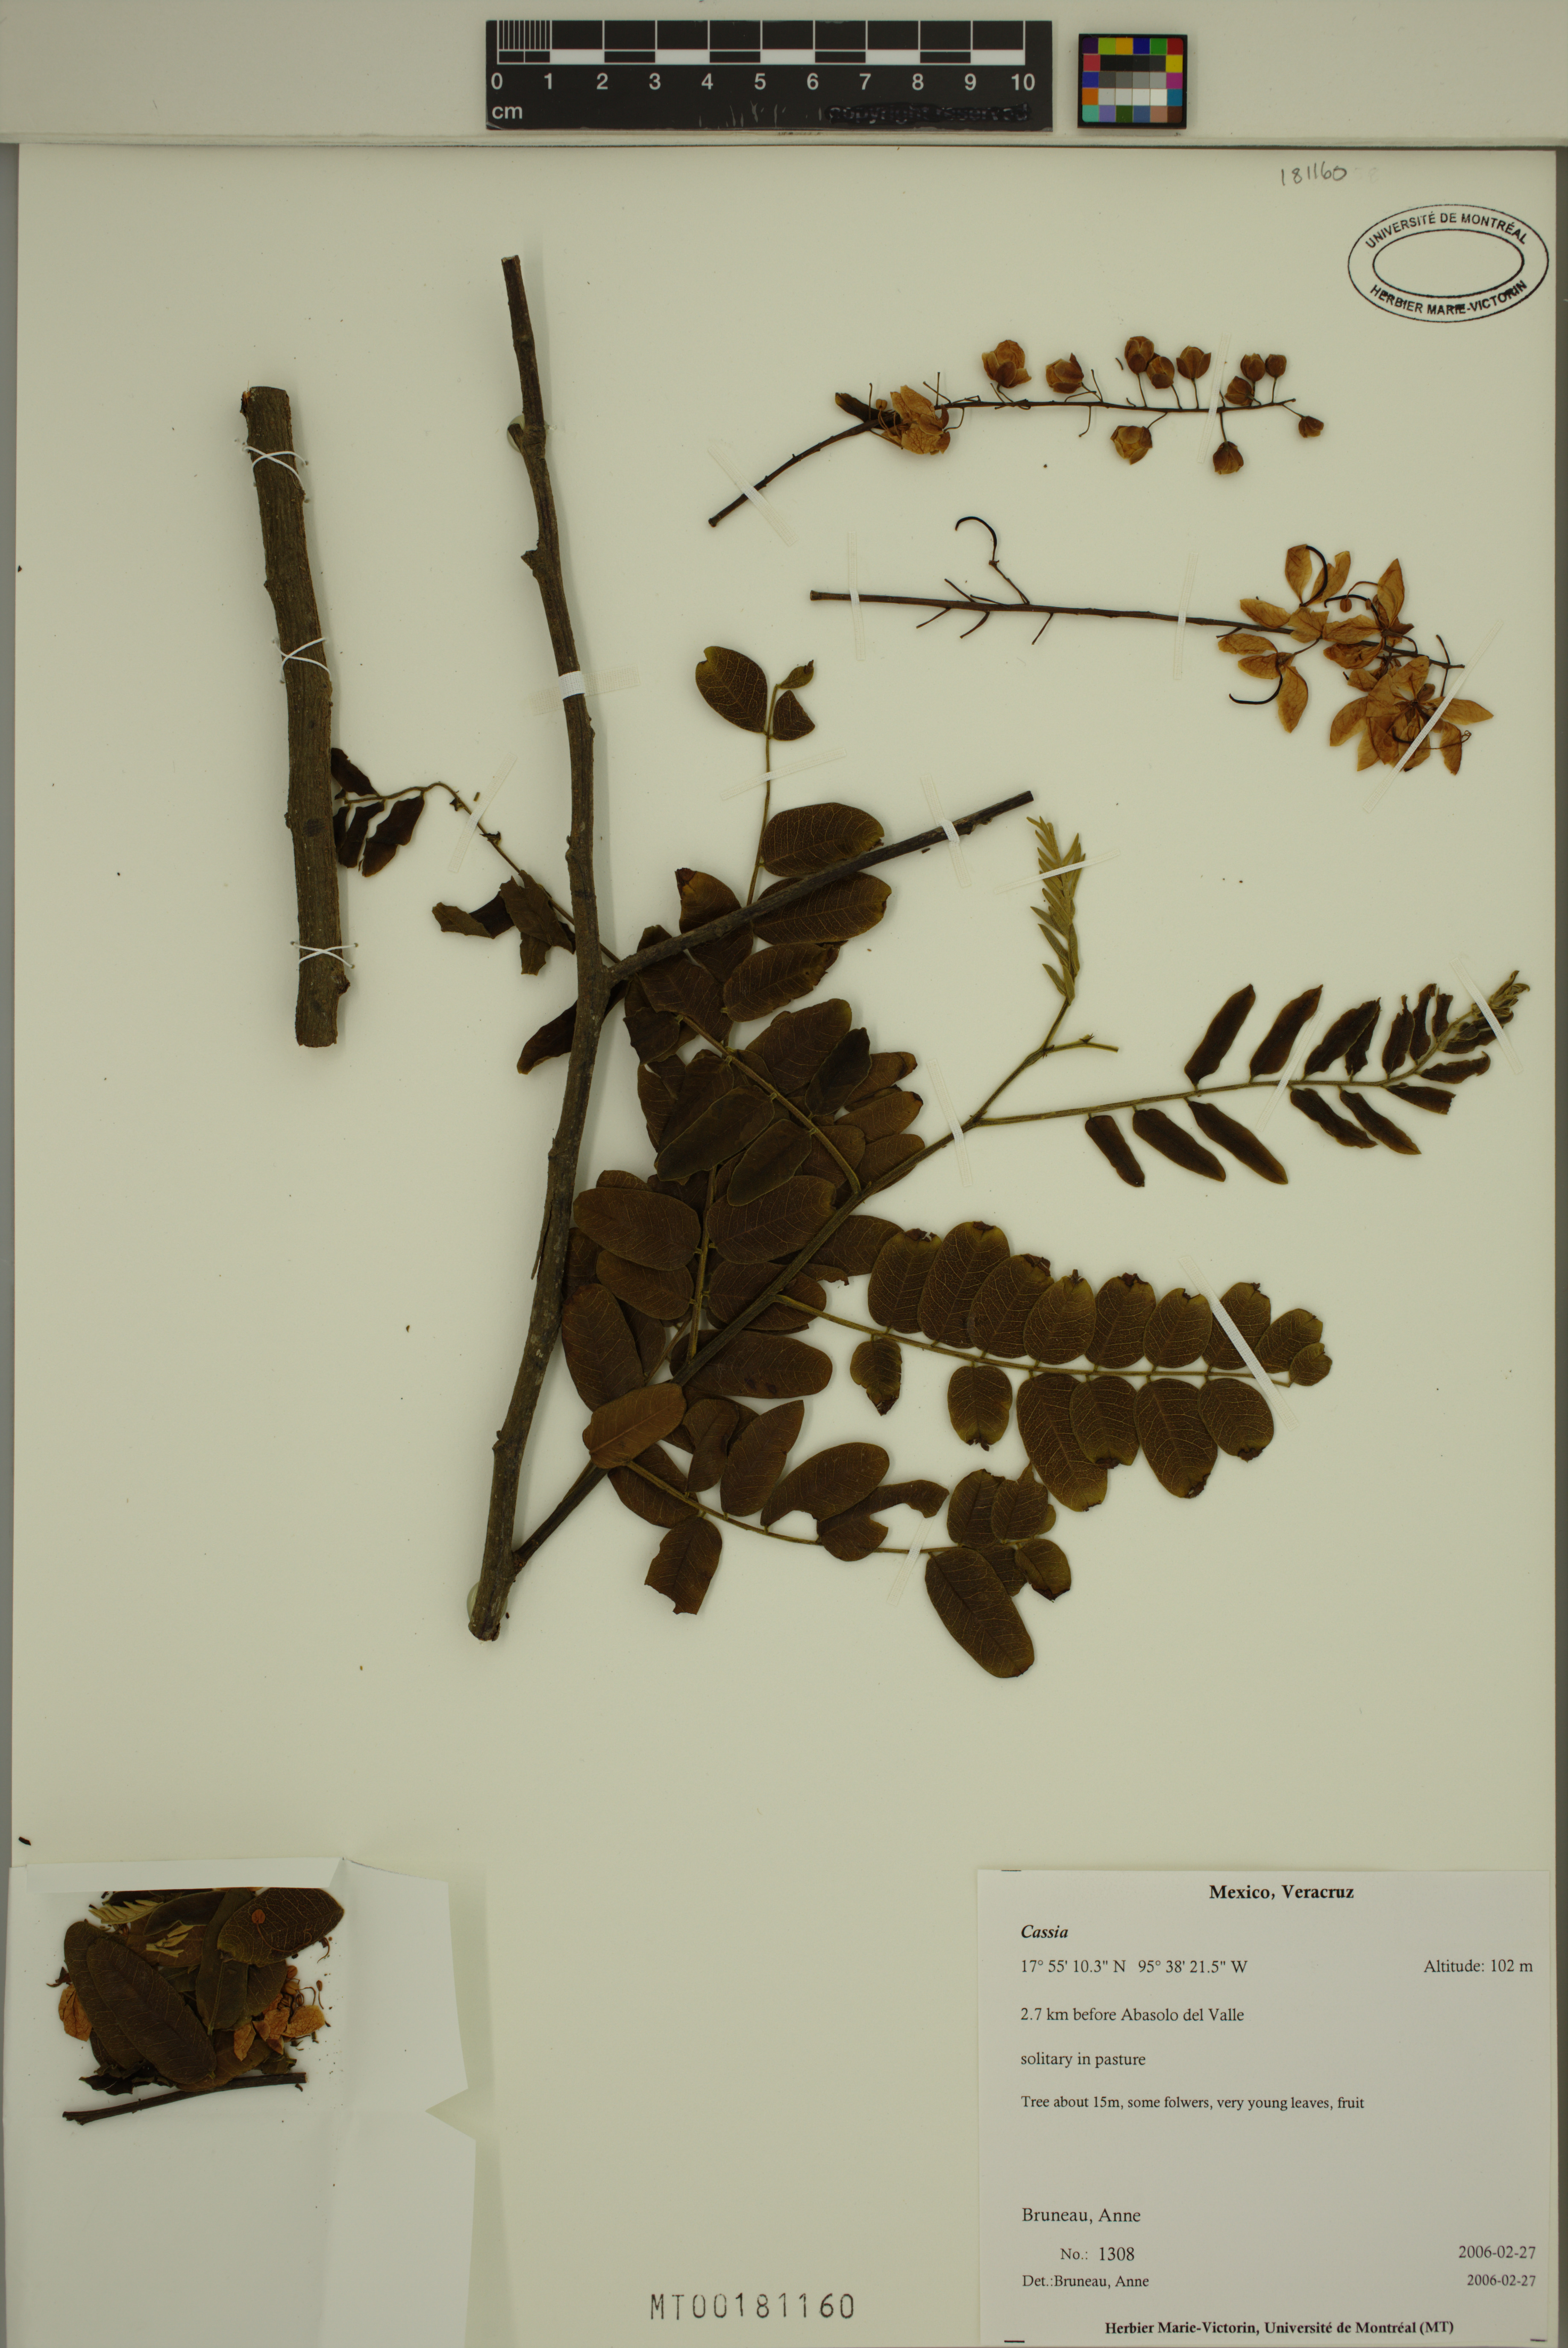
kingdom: Plantae
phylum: Tracheophyta
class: Magnoliopsida
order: Fabales
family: Fabaceae
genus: Cassia
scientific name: Cassia
